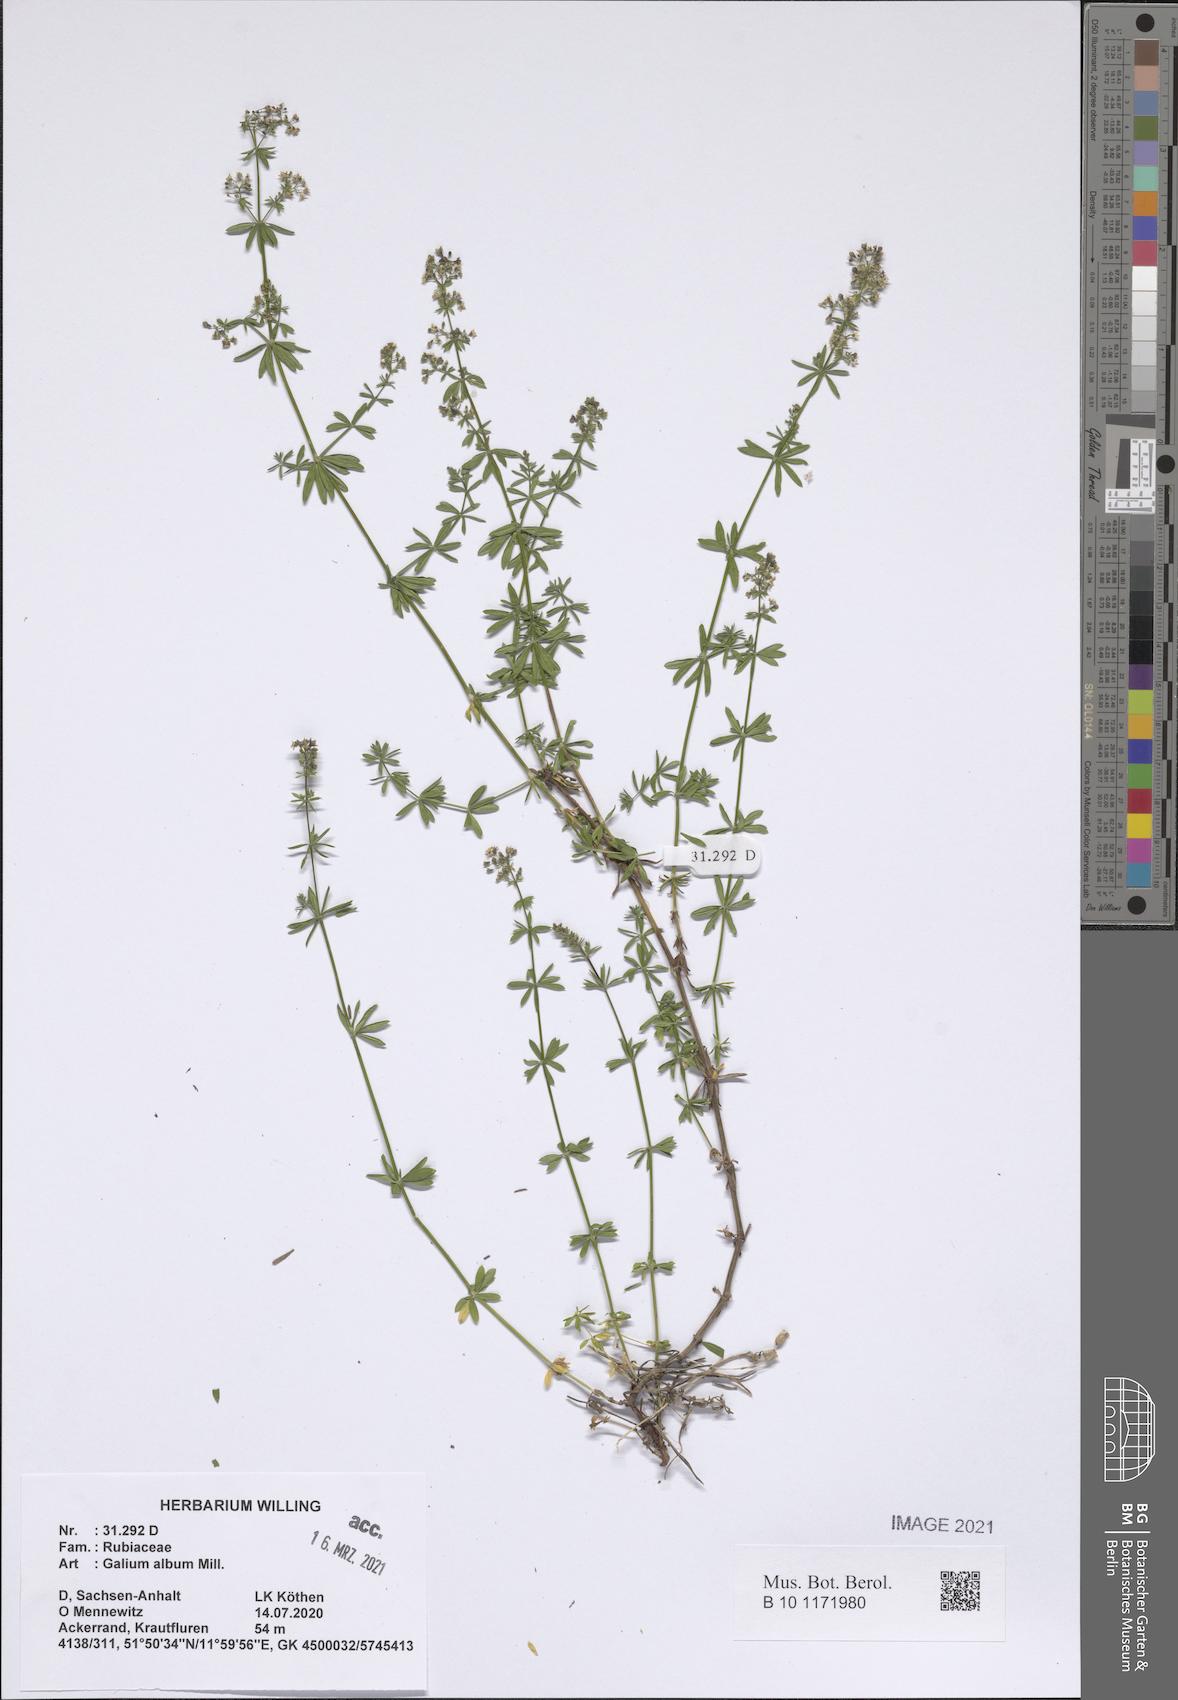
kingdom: Plantae
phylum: Tracheophyta
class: Magnoliopsida
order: Gentianales
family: Rubiaceae
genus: Galium
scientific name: Galium album
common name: White bedstraw
